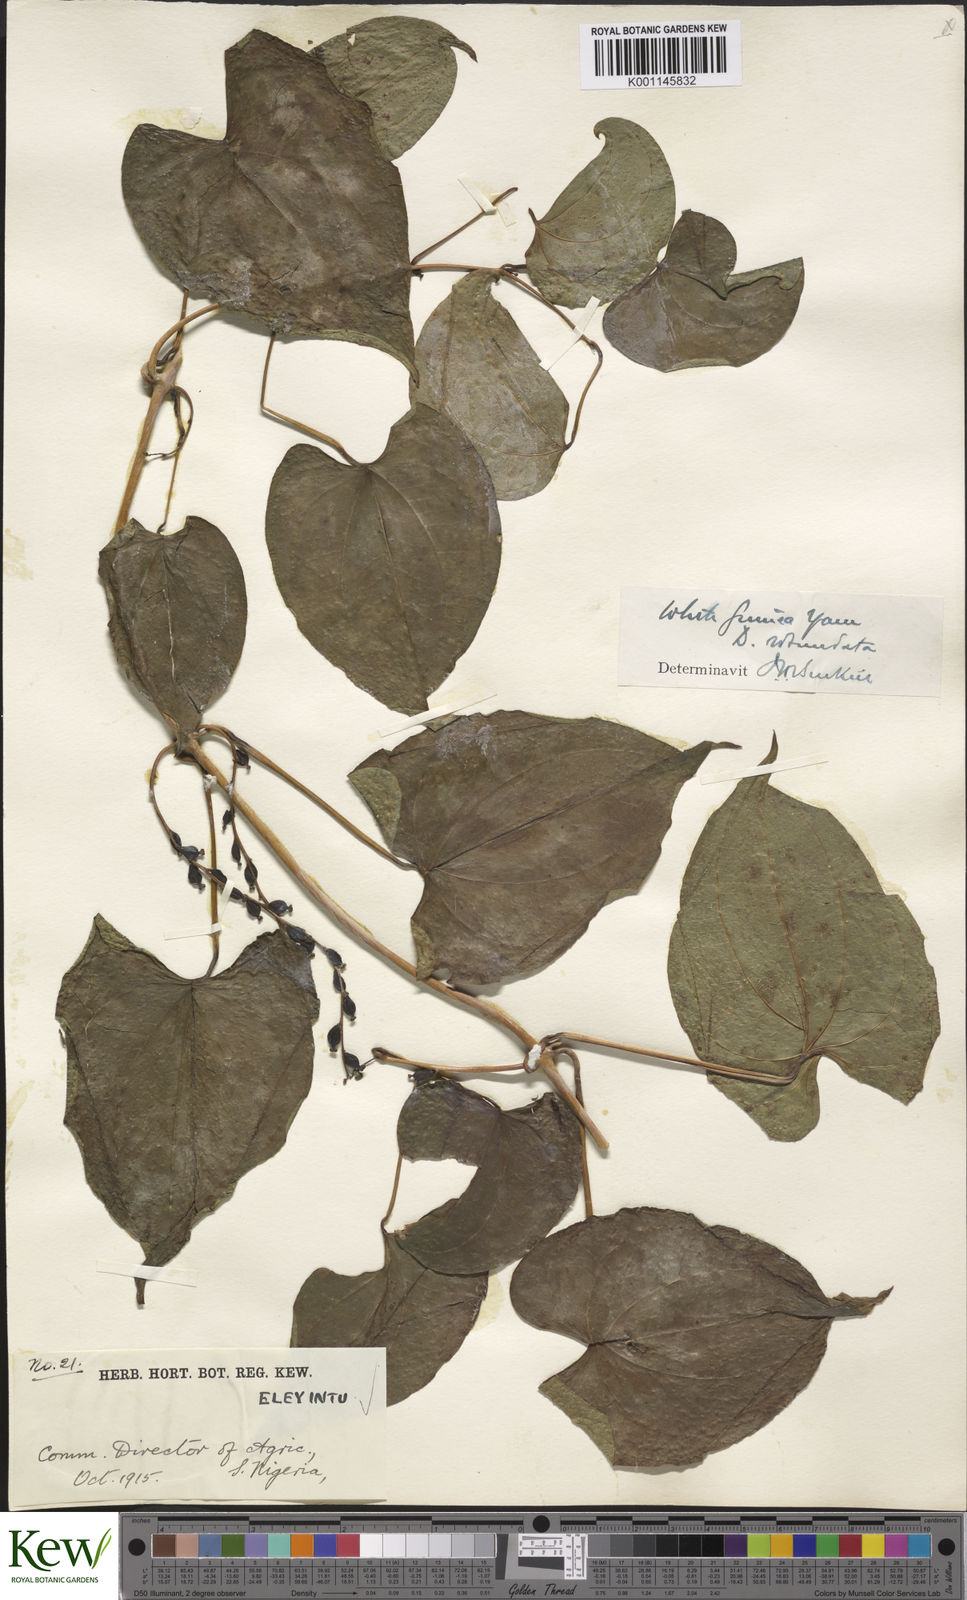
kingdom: Plantae
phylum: Tracheophyta
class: Liliopsida
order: Dioscoreales
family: Dioscoreaceae
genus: Dioscorea
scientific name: Dioscorea cayenensis
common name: Attoto yam
